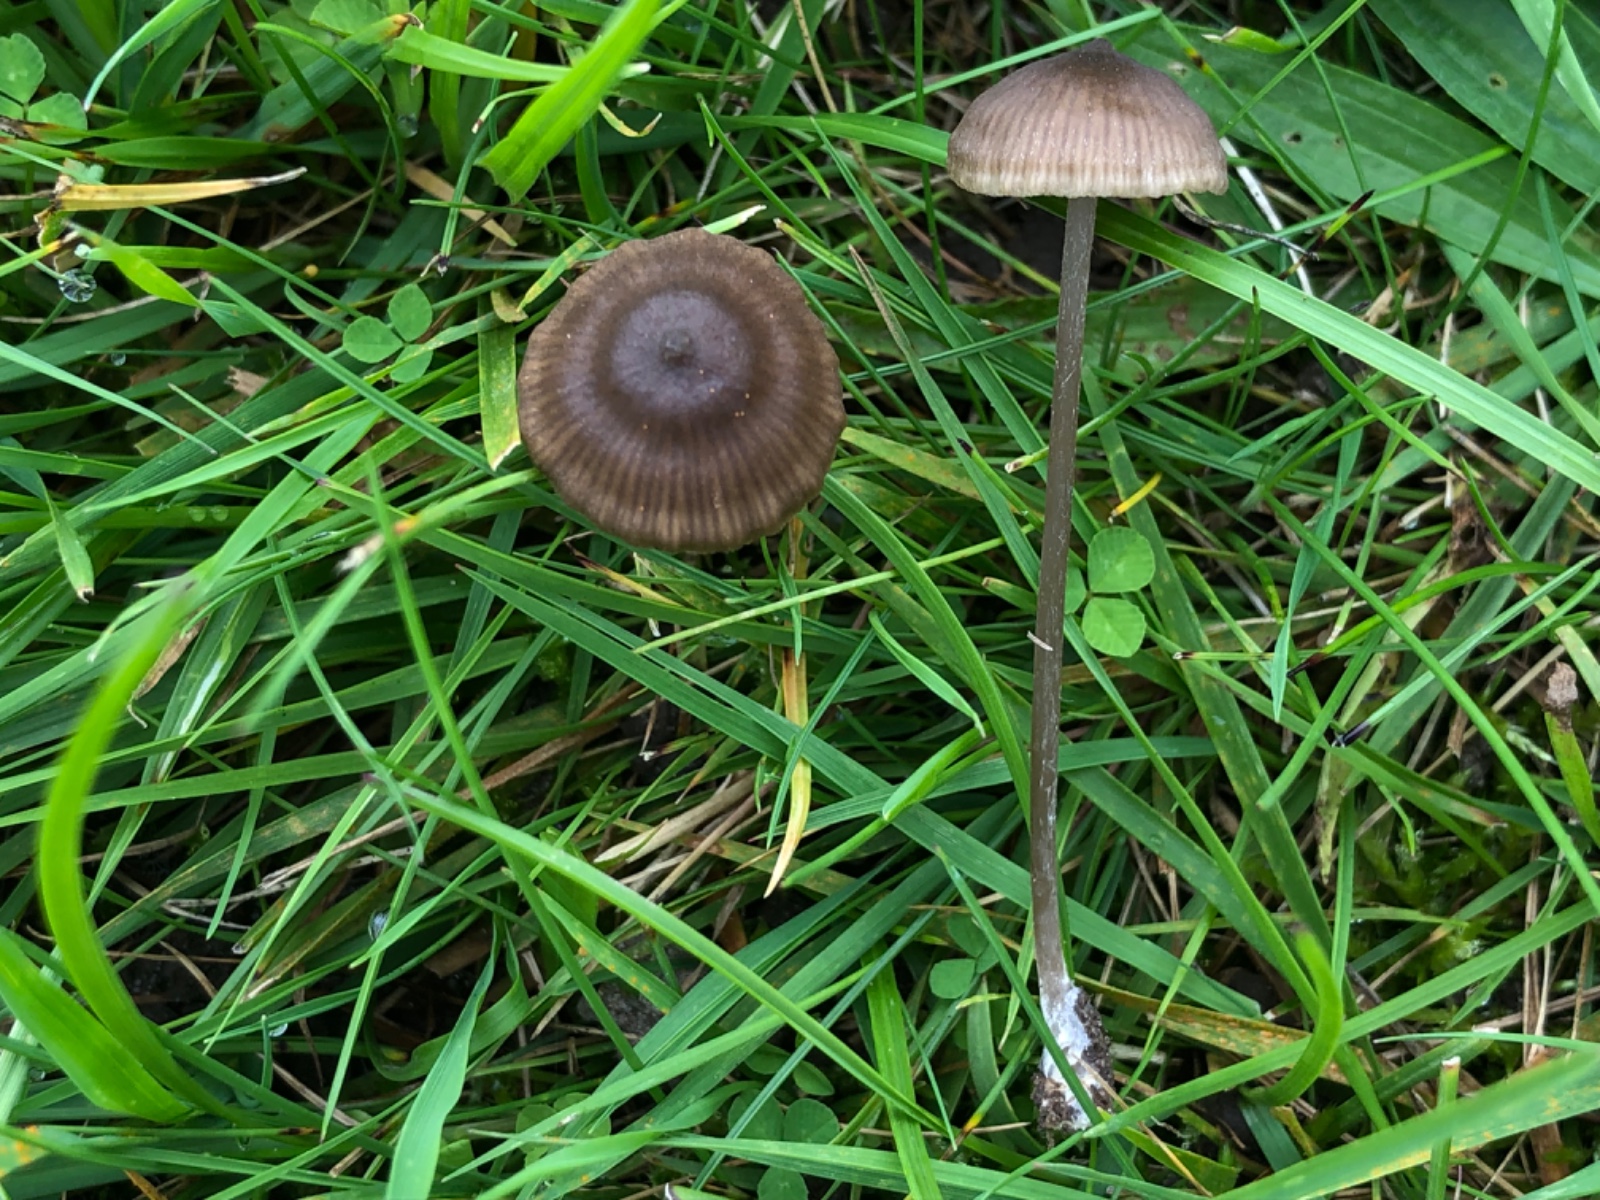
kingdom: Fungi
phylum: Basidiomycota
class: Agaricomycetes
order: Agaricales
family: Entolomataceae
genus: Entoloma
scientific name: Entoloma clandestinum
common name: tykbladet rødblad
